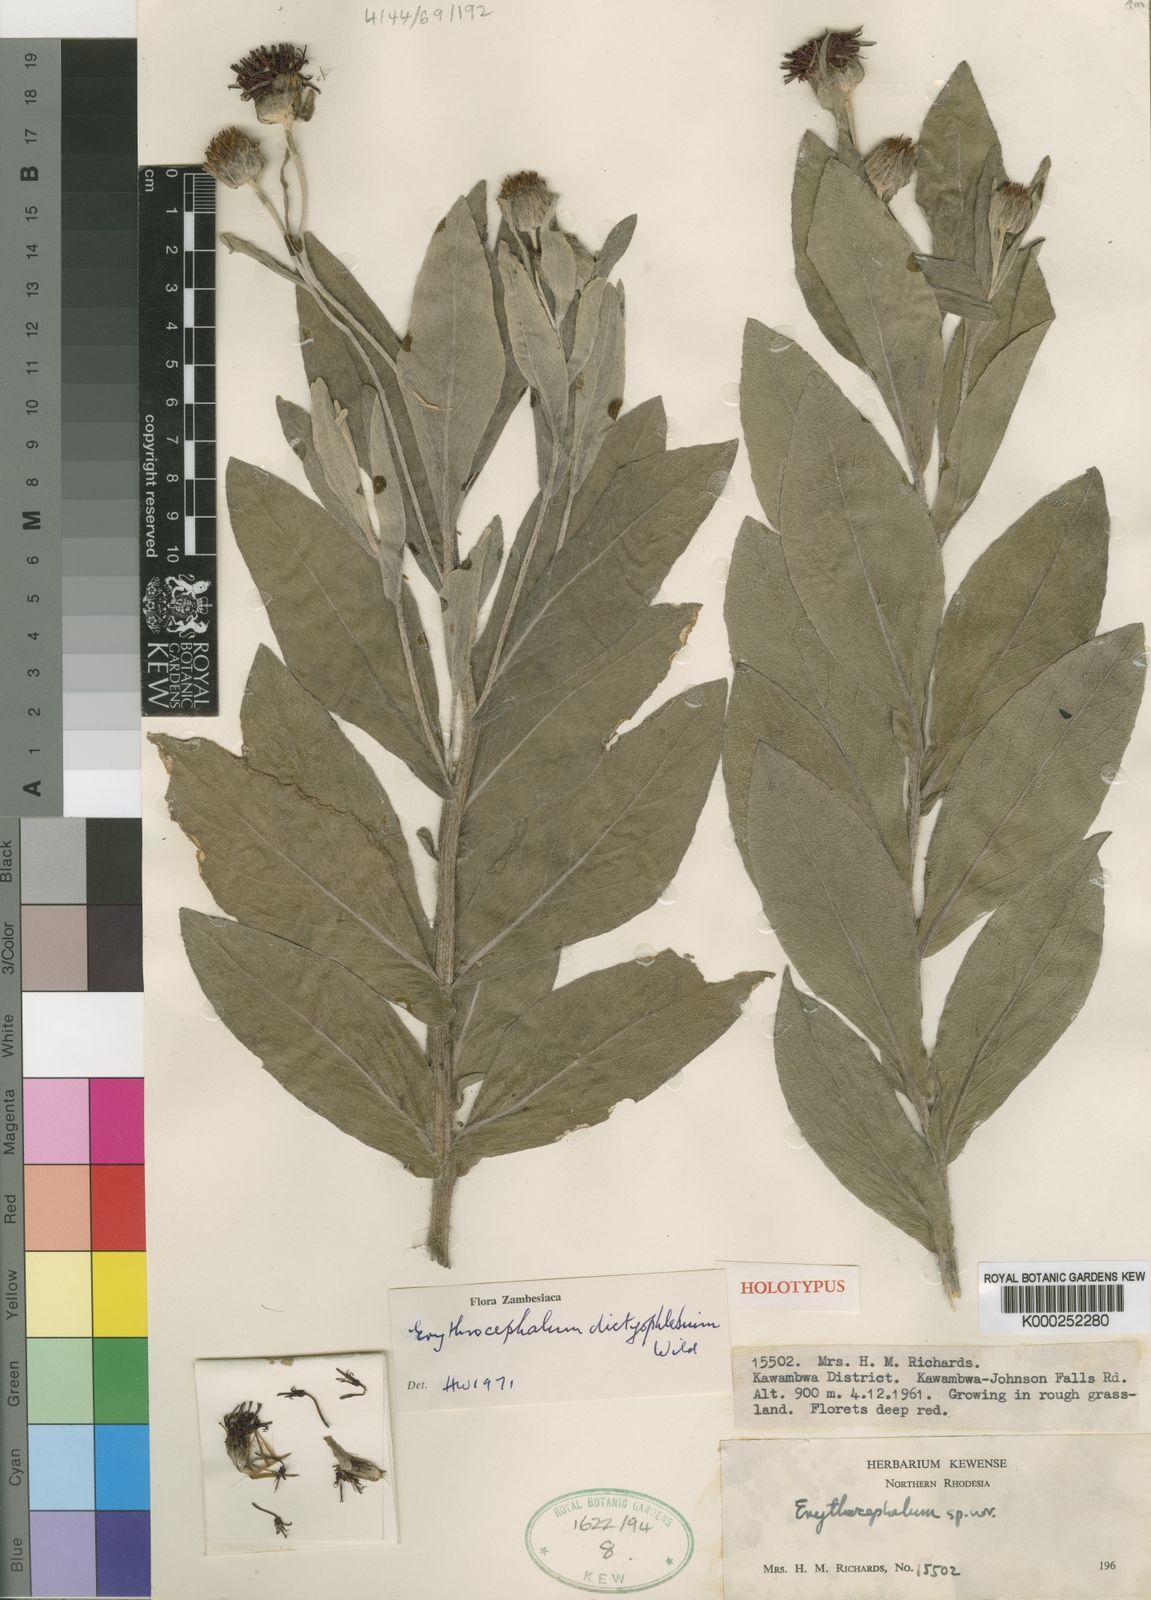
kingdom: Plantae
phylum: Tracheophyta
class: Magnoliopsida
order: Asterales
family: Asteraceae
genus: Erythrocephalum
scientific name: Erythrocephalum dictyophlebium
